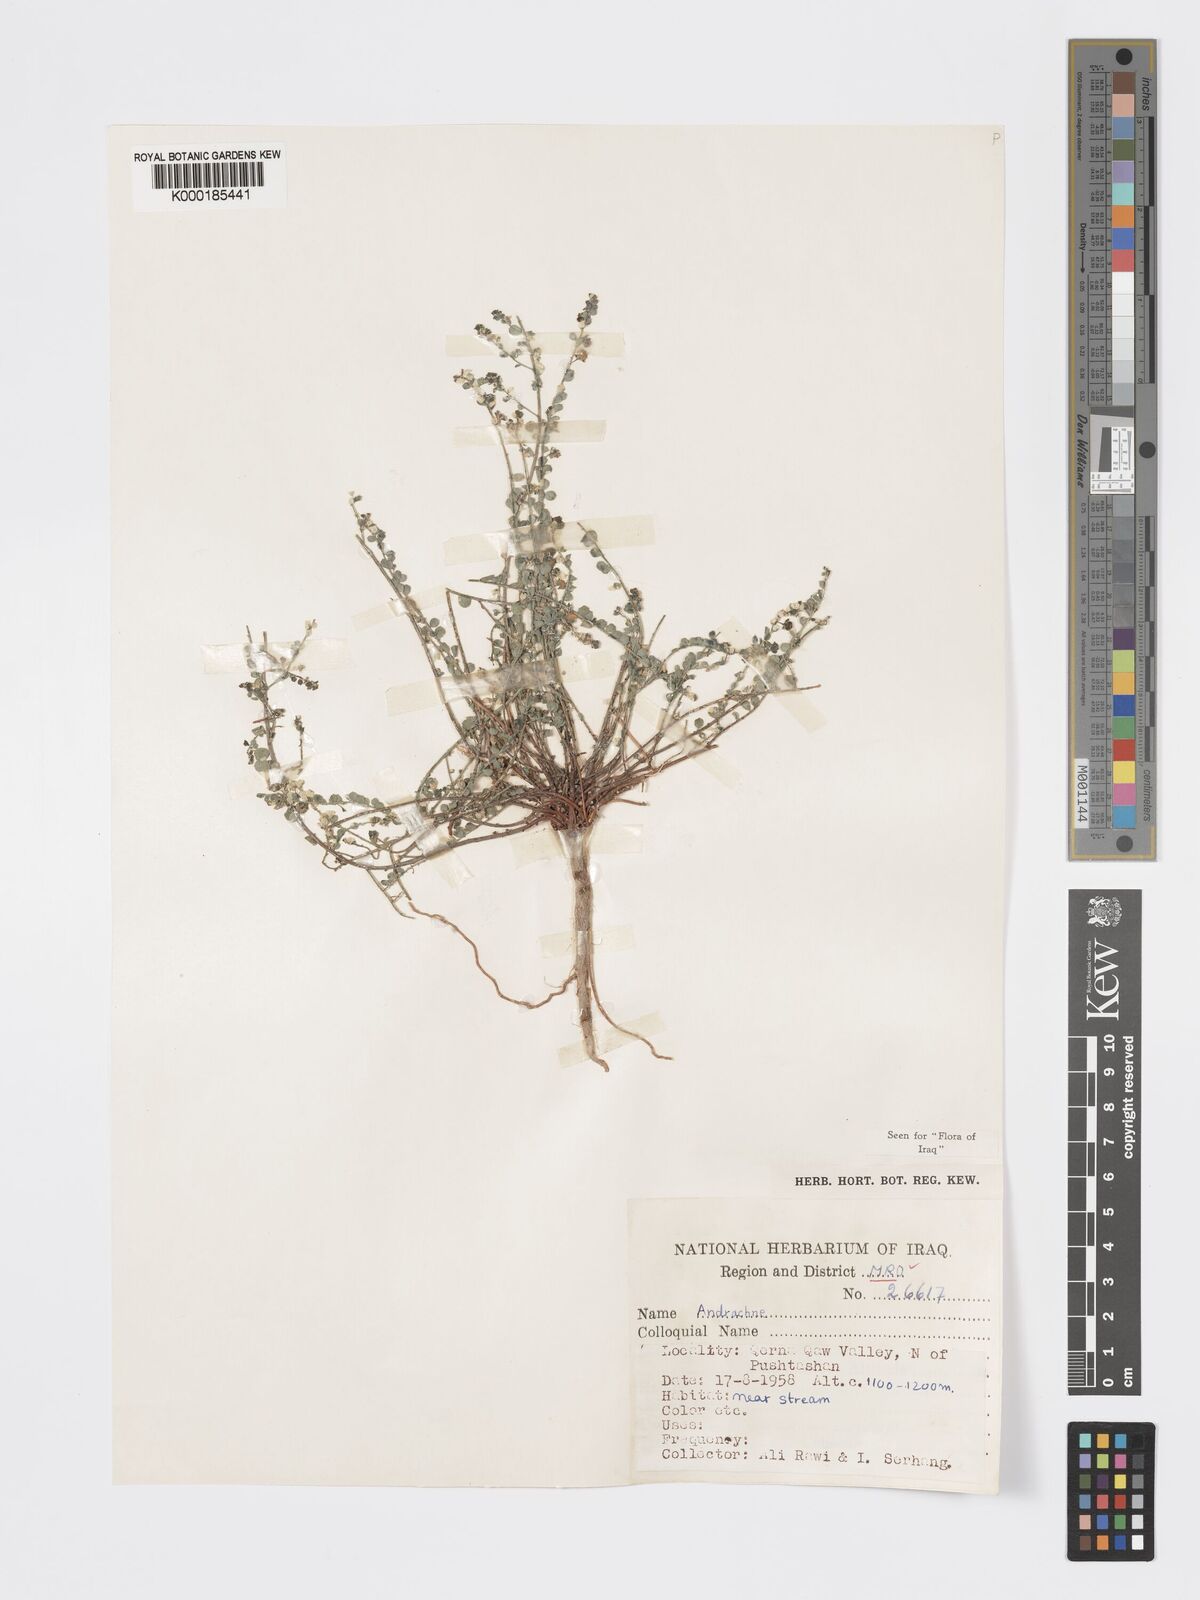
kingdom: Plantae
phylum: Tracheophyta
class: Magnoliopsida
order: Malpighiales
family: Phyllanthaceae
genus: Andrachne
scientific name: Andrachne telephioides
